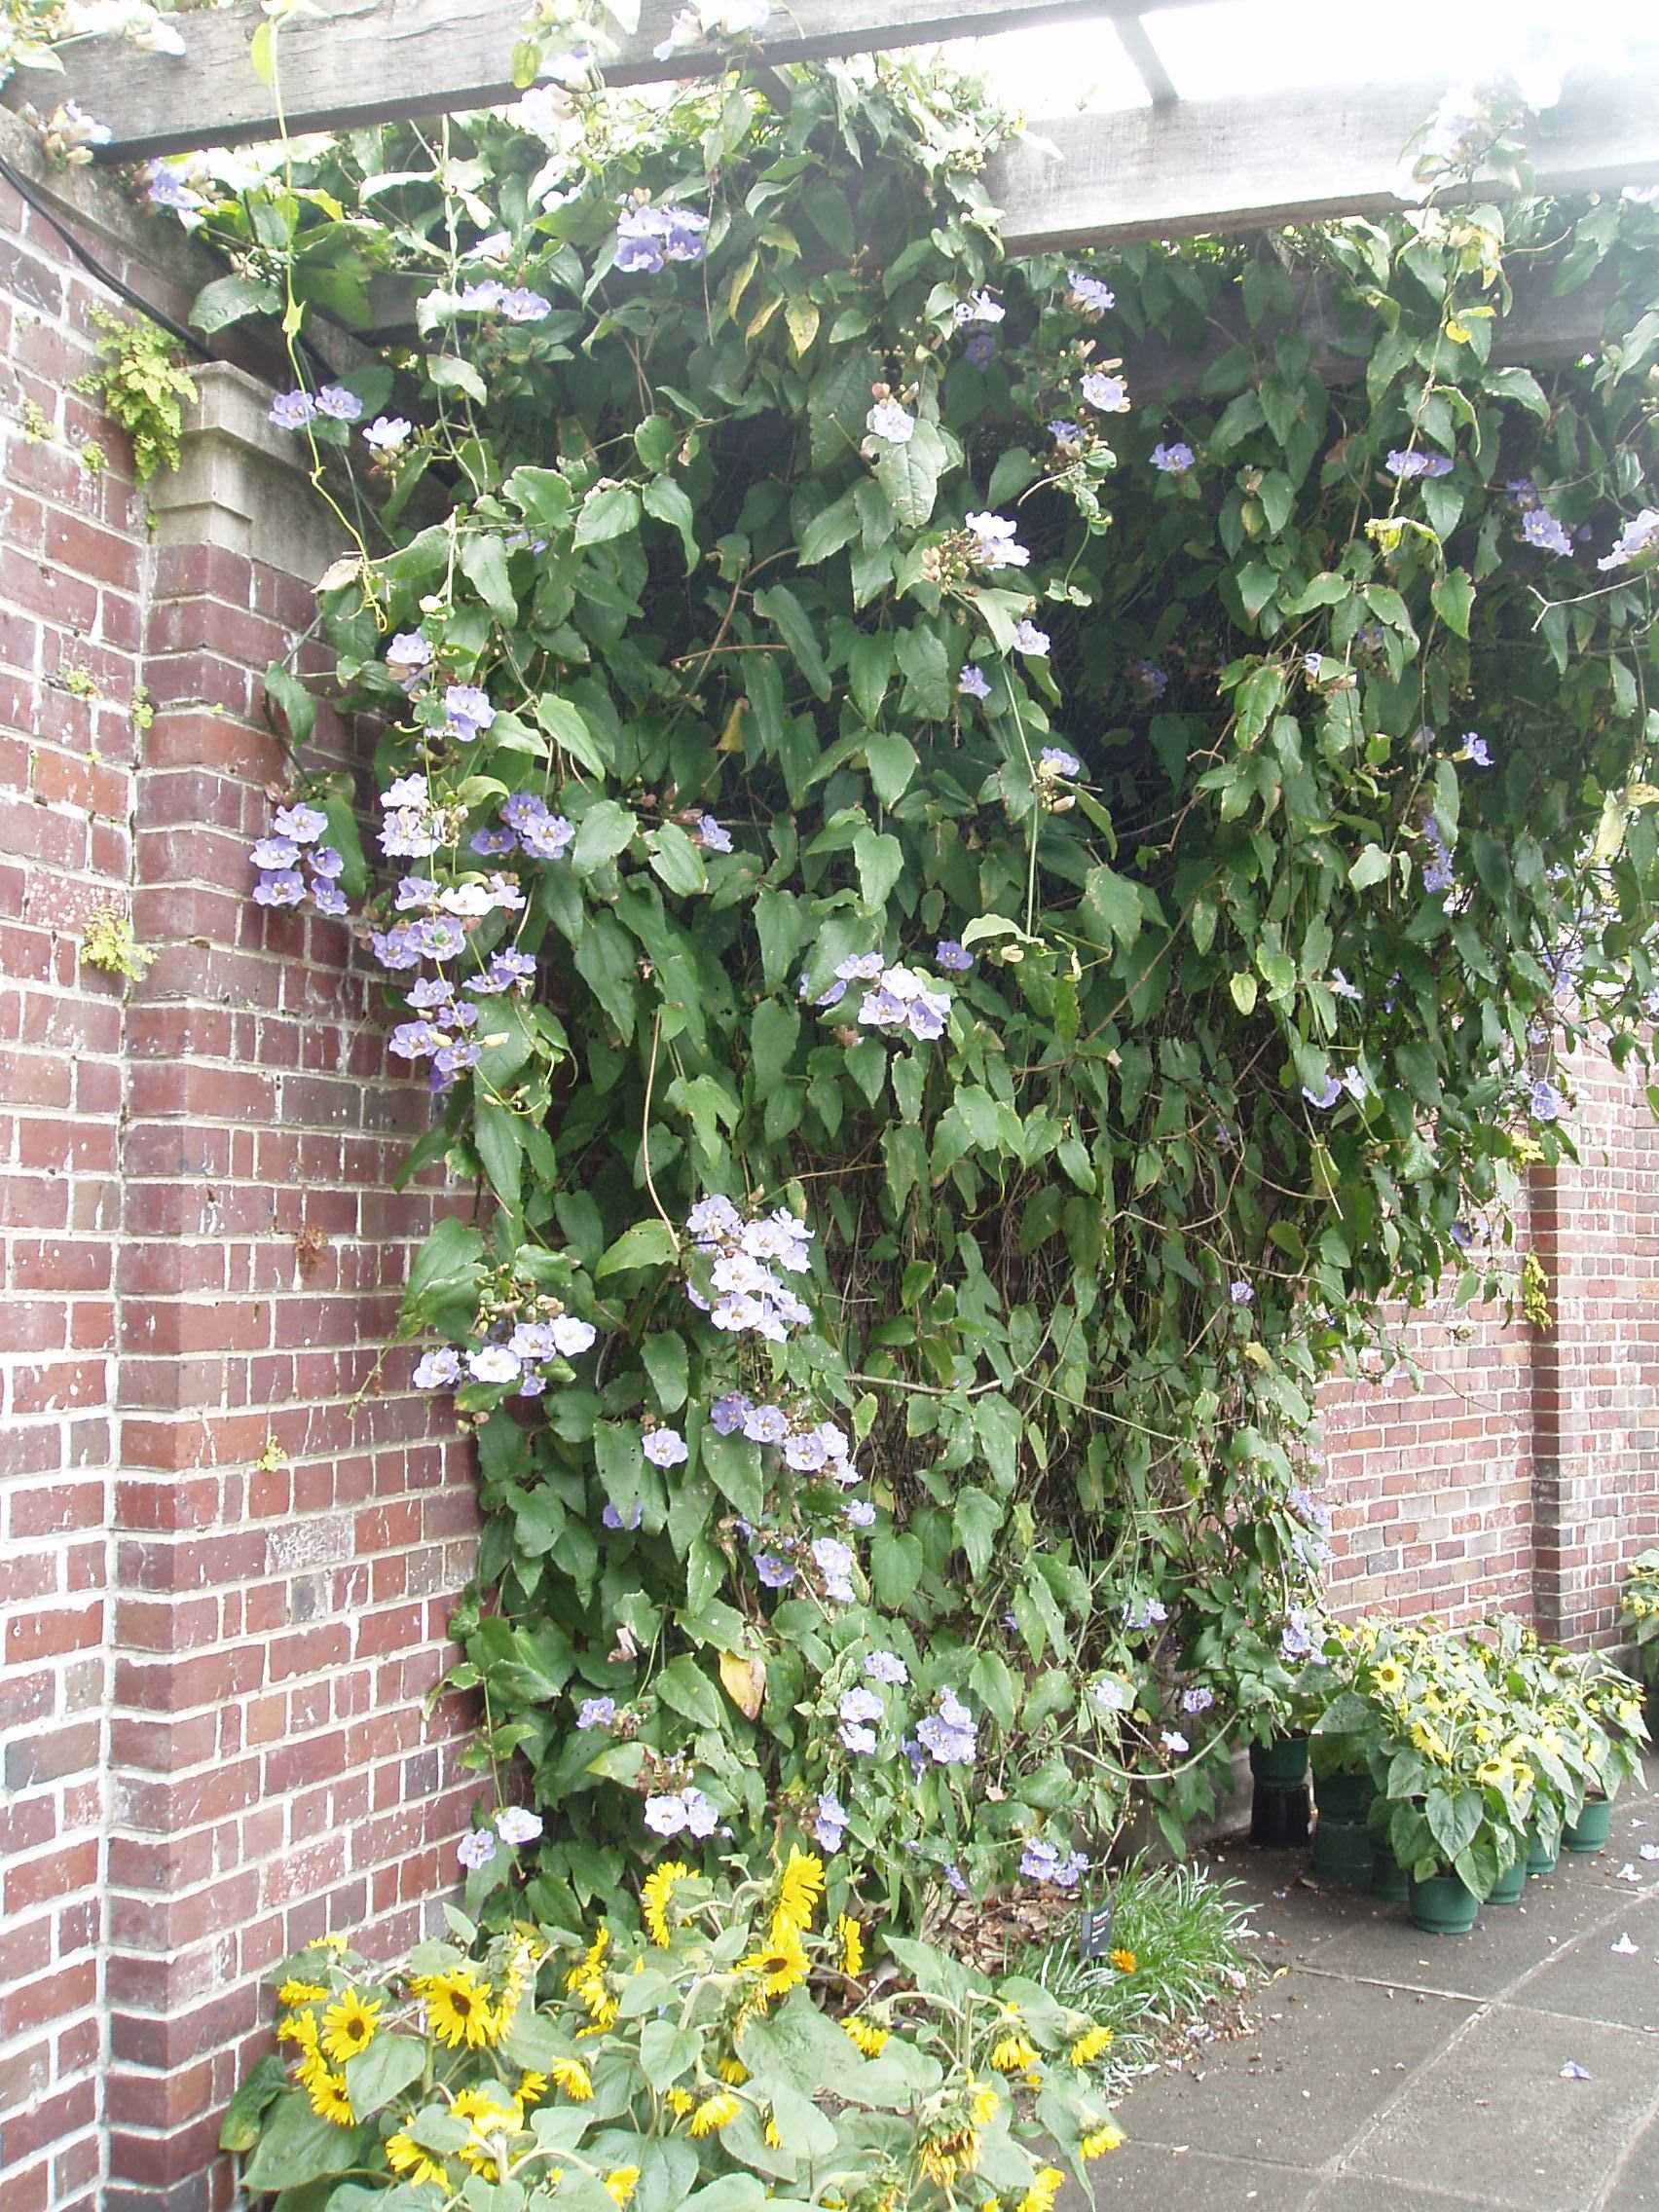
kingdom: Plantae
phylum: Tracheophyta
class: Magnoliopsida
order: Lamiales
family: Acanthaceae
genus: Thunbergia
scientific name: Thunbergia grandiflora
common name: Bengal trumpet
